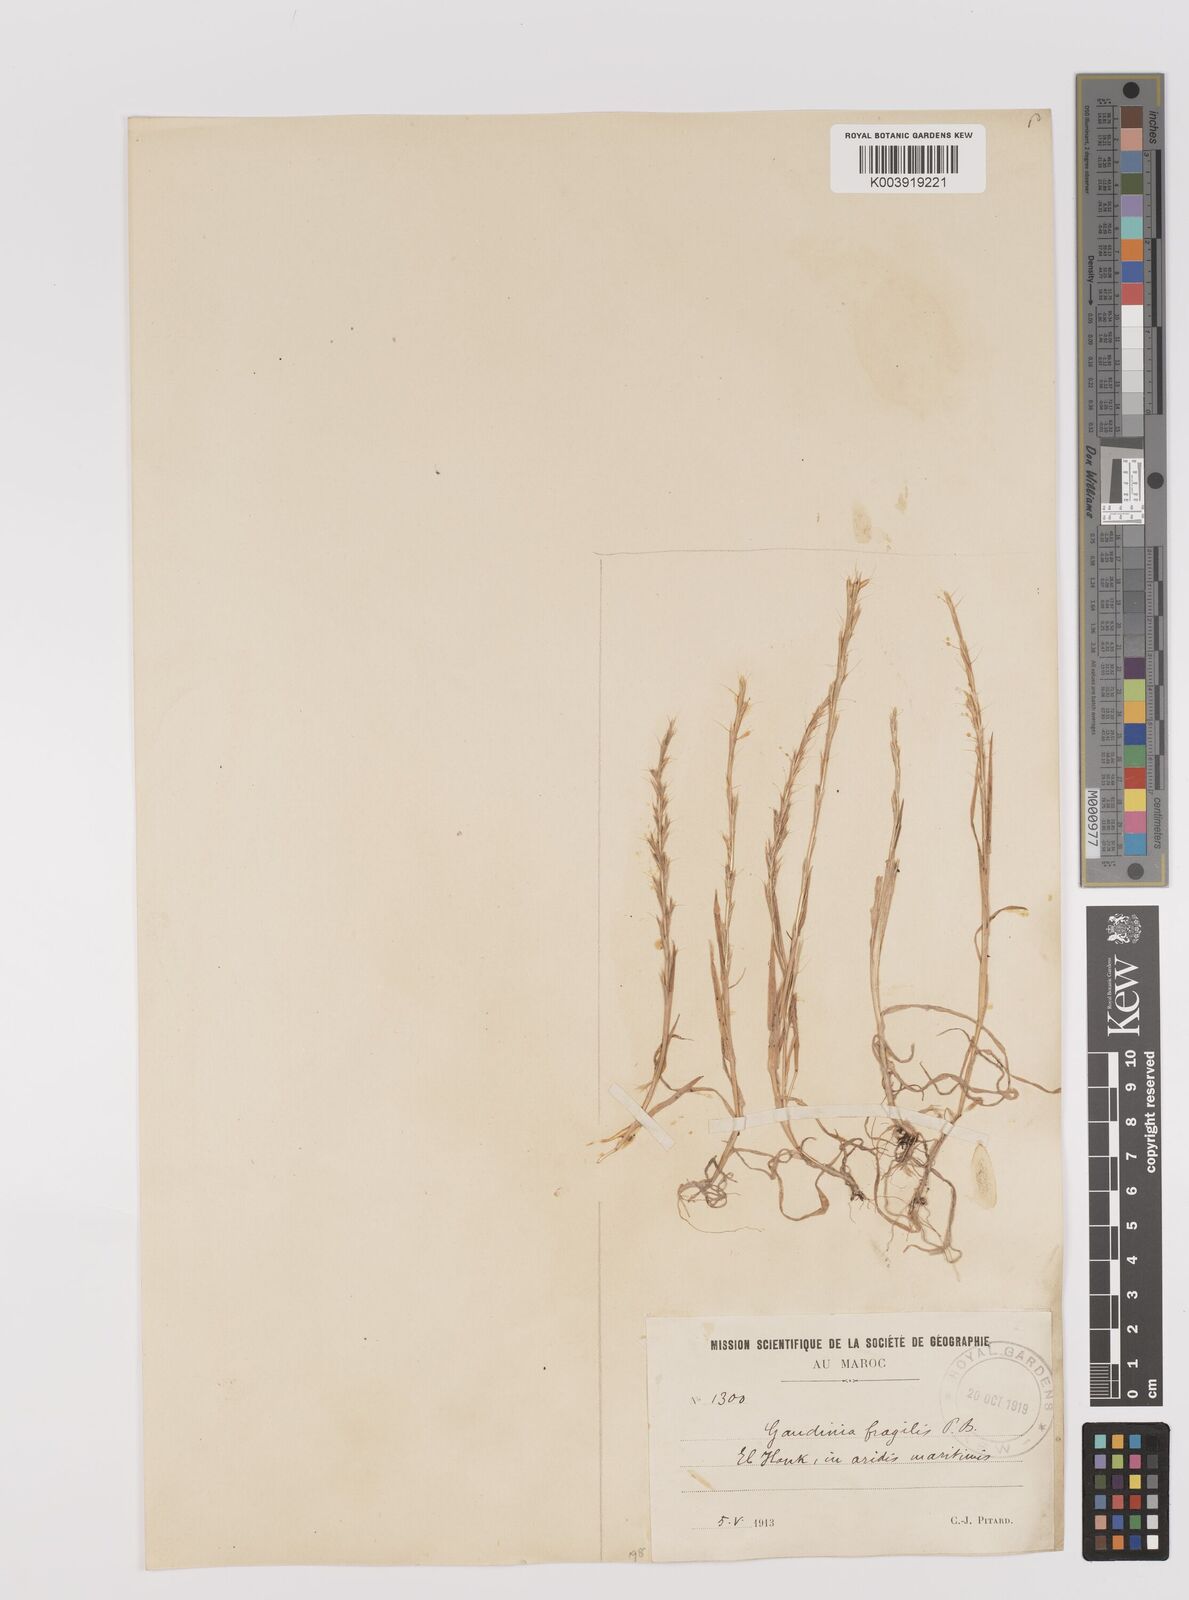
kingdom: Plantae
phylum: Tracheophyta
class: Liliopsida
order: Poales
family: Poaceae
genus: Gaudinia
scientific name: Gaudinia fragilis
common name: French oat-grass
